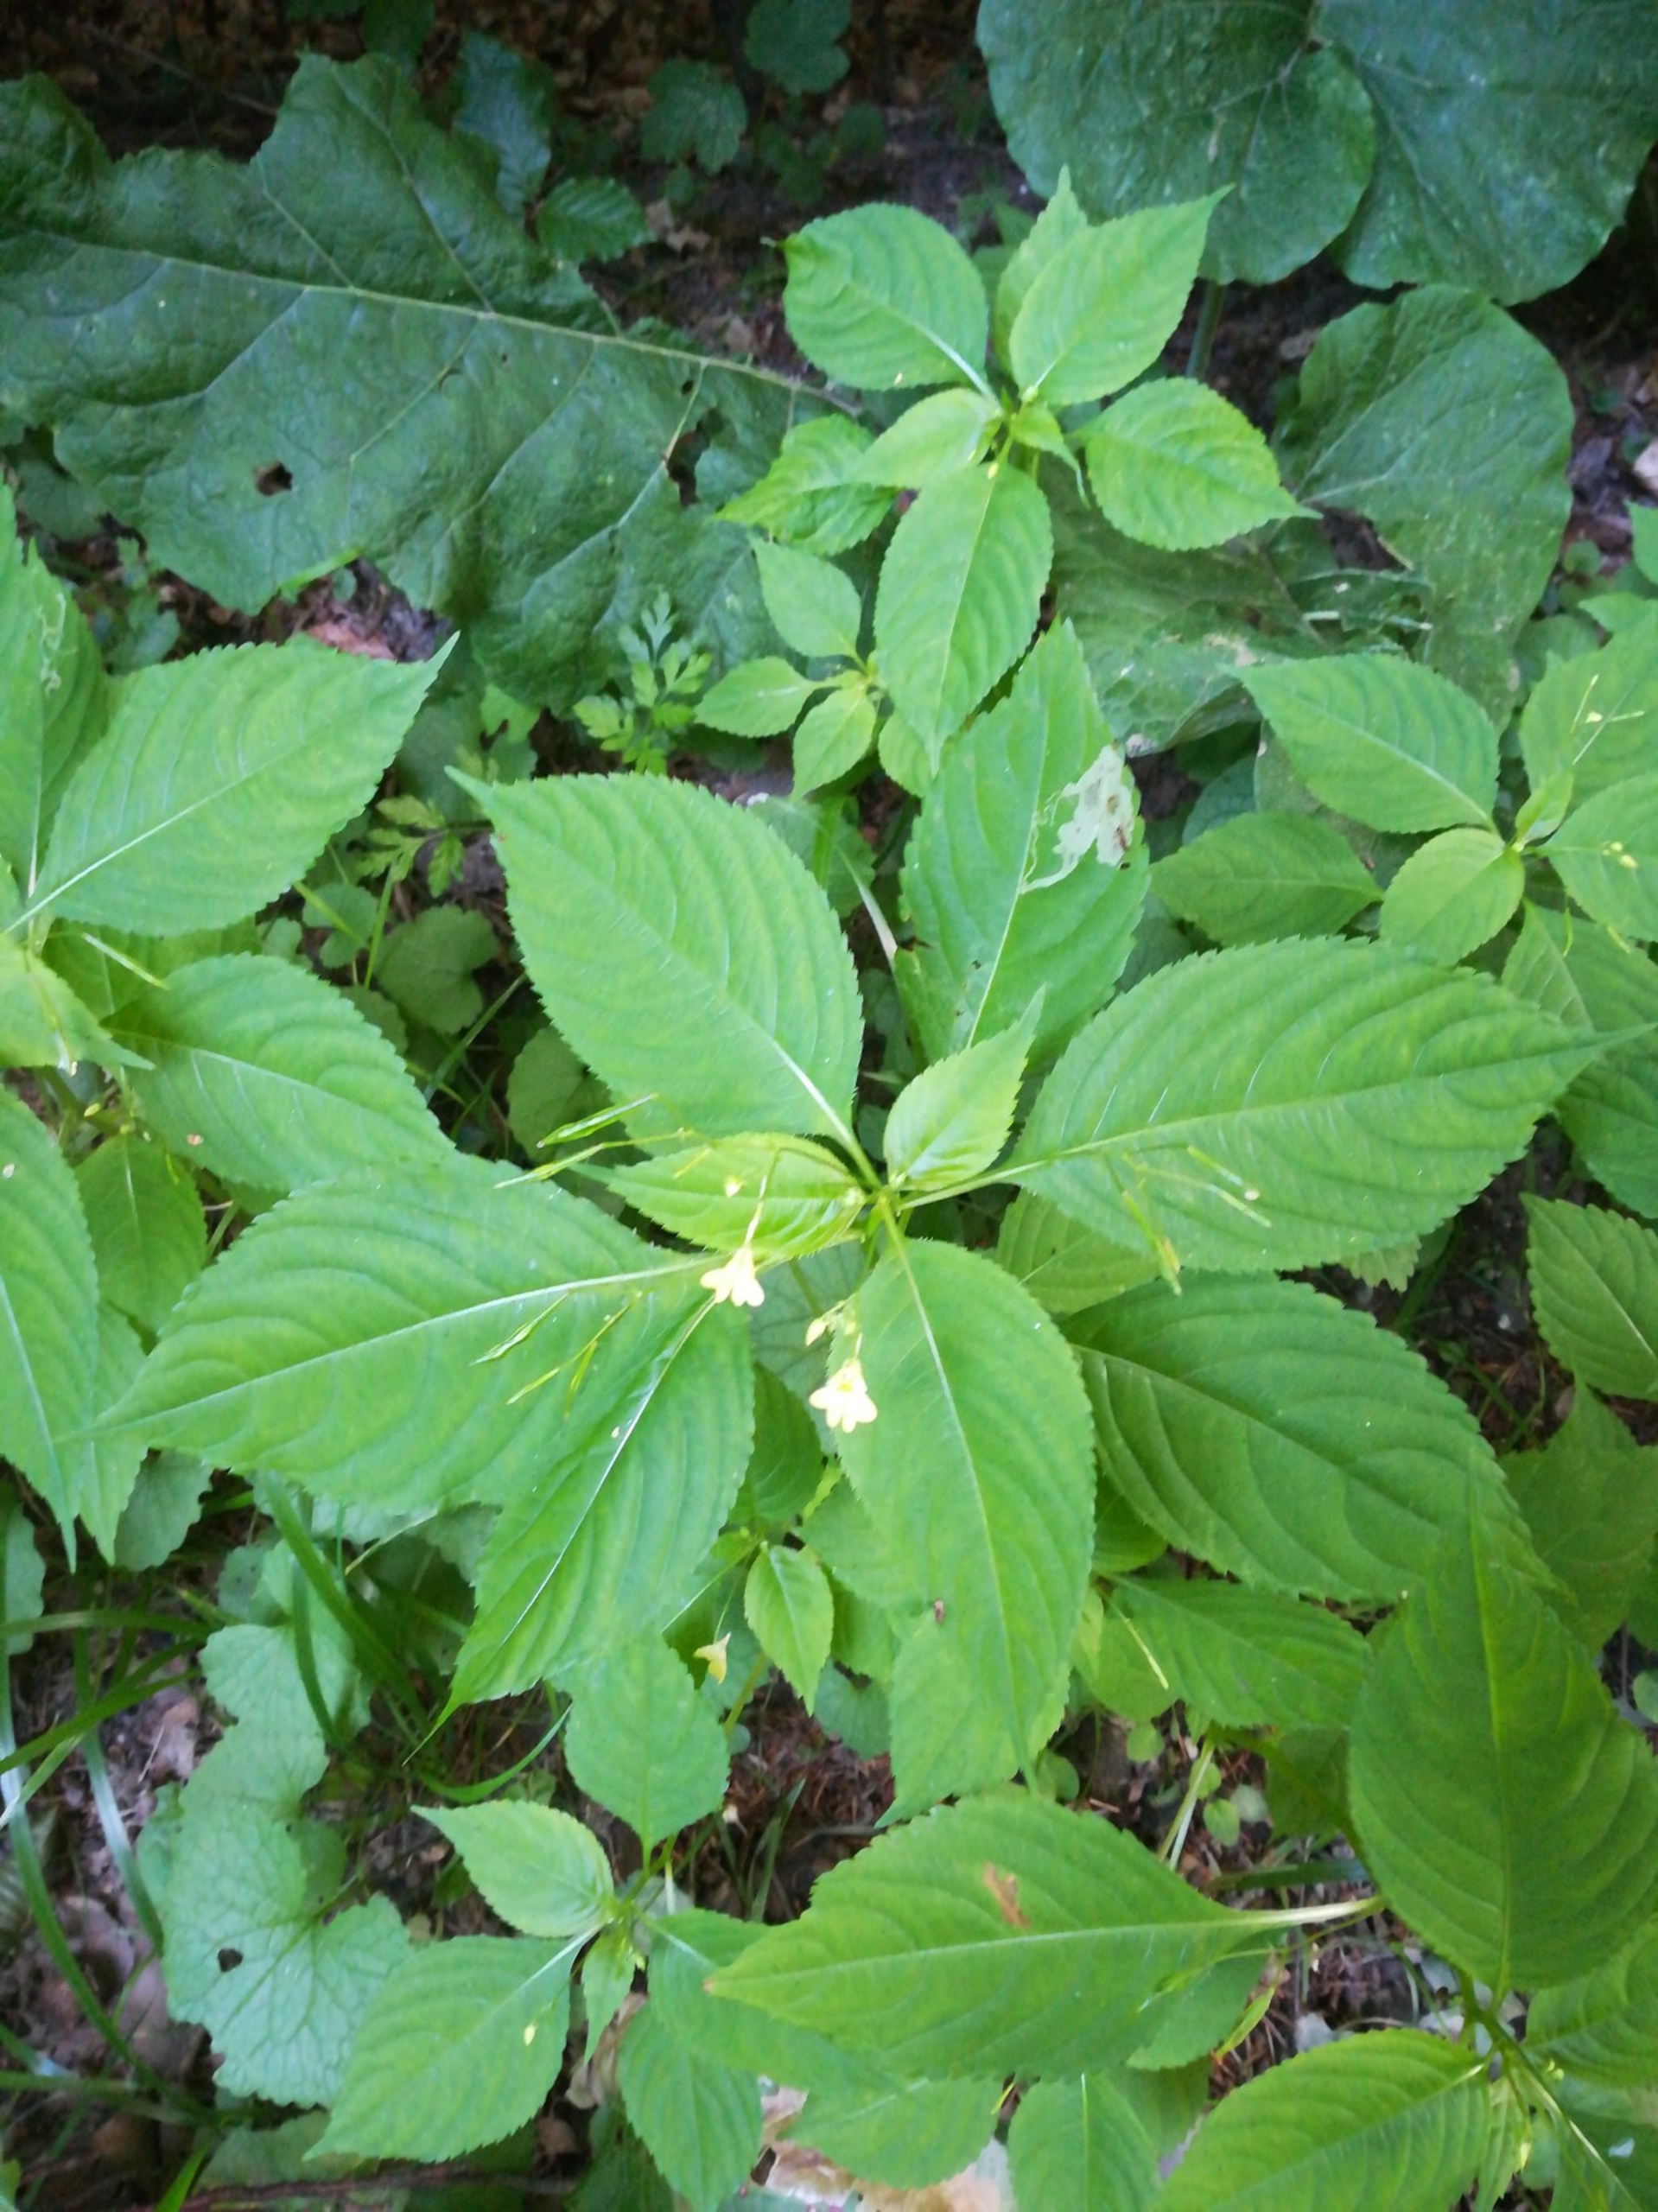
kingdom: Plantae
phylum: Tracheophyta
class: Magnoliopsida
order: Ericales
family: Balsaminaceae
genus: Impatiens
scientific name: Impatiens parviflora
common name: Småblomstret balsamin
